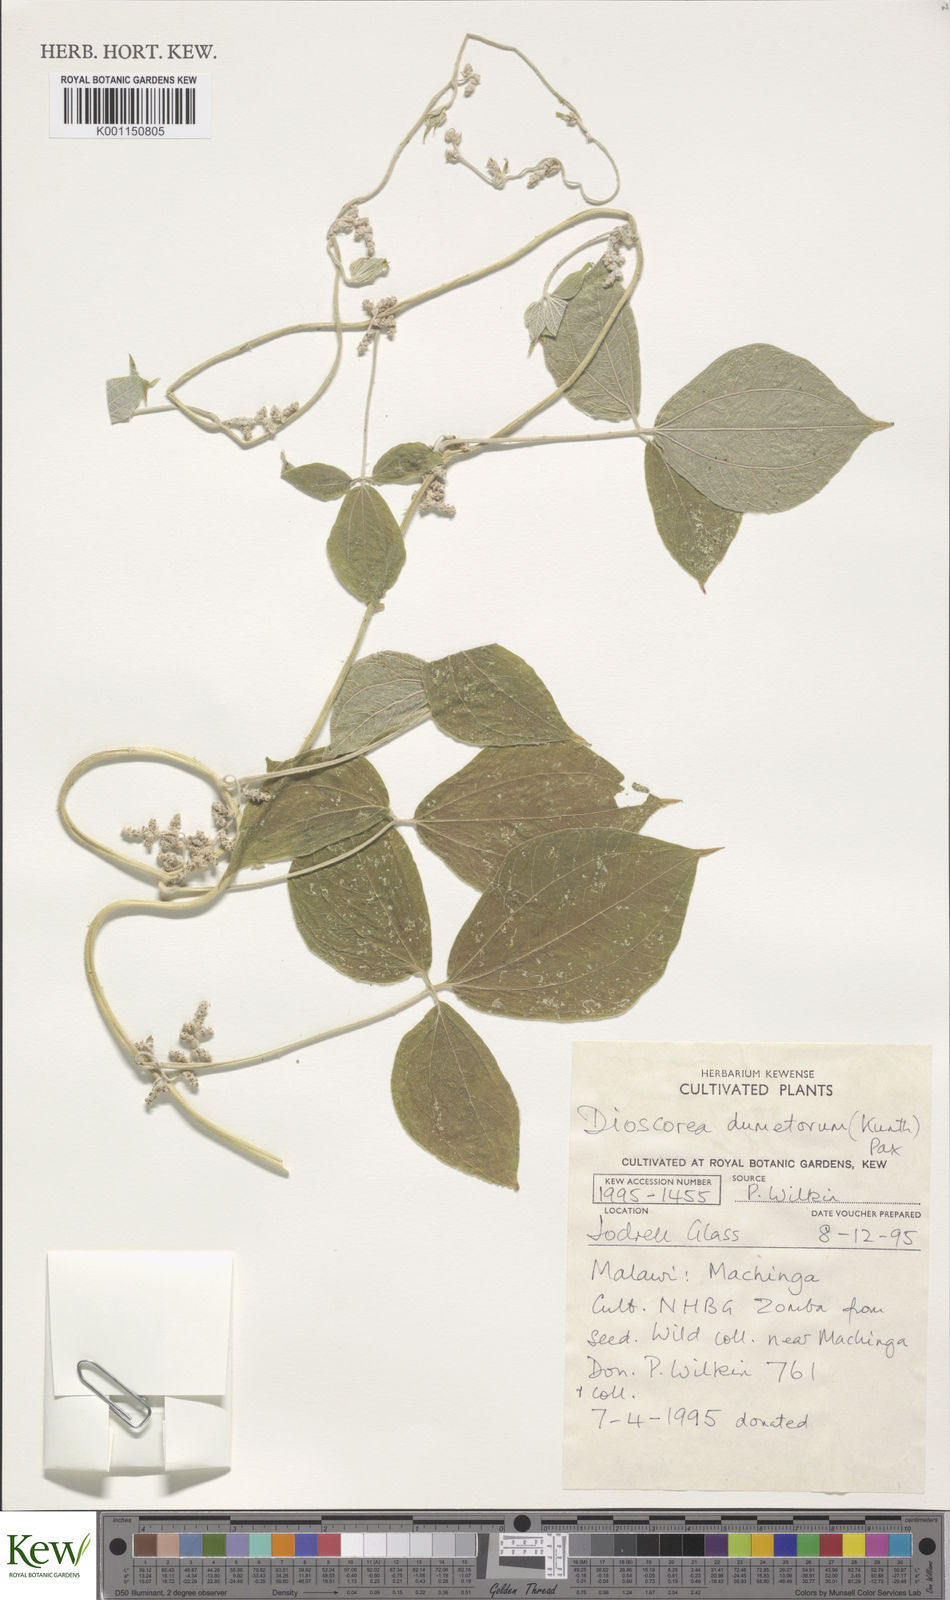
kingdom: Plantae
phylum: Tracheophyta
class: Liliopsida
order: Dioscoreales
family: Dioscoreaceae
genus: Dioscorea
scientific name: Dioscorea dumetorum
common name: African bitter yam
